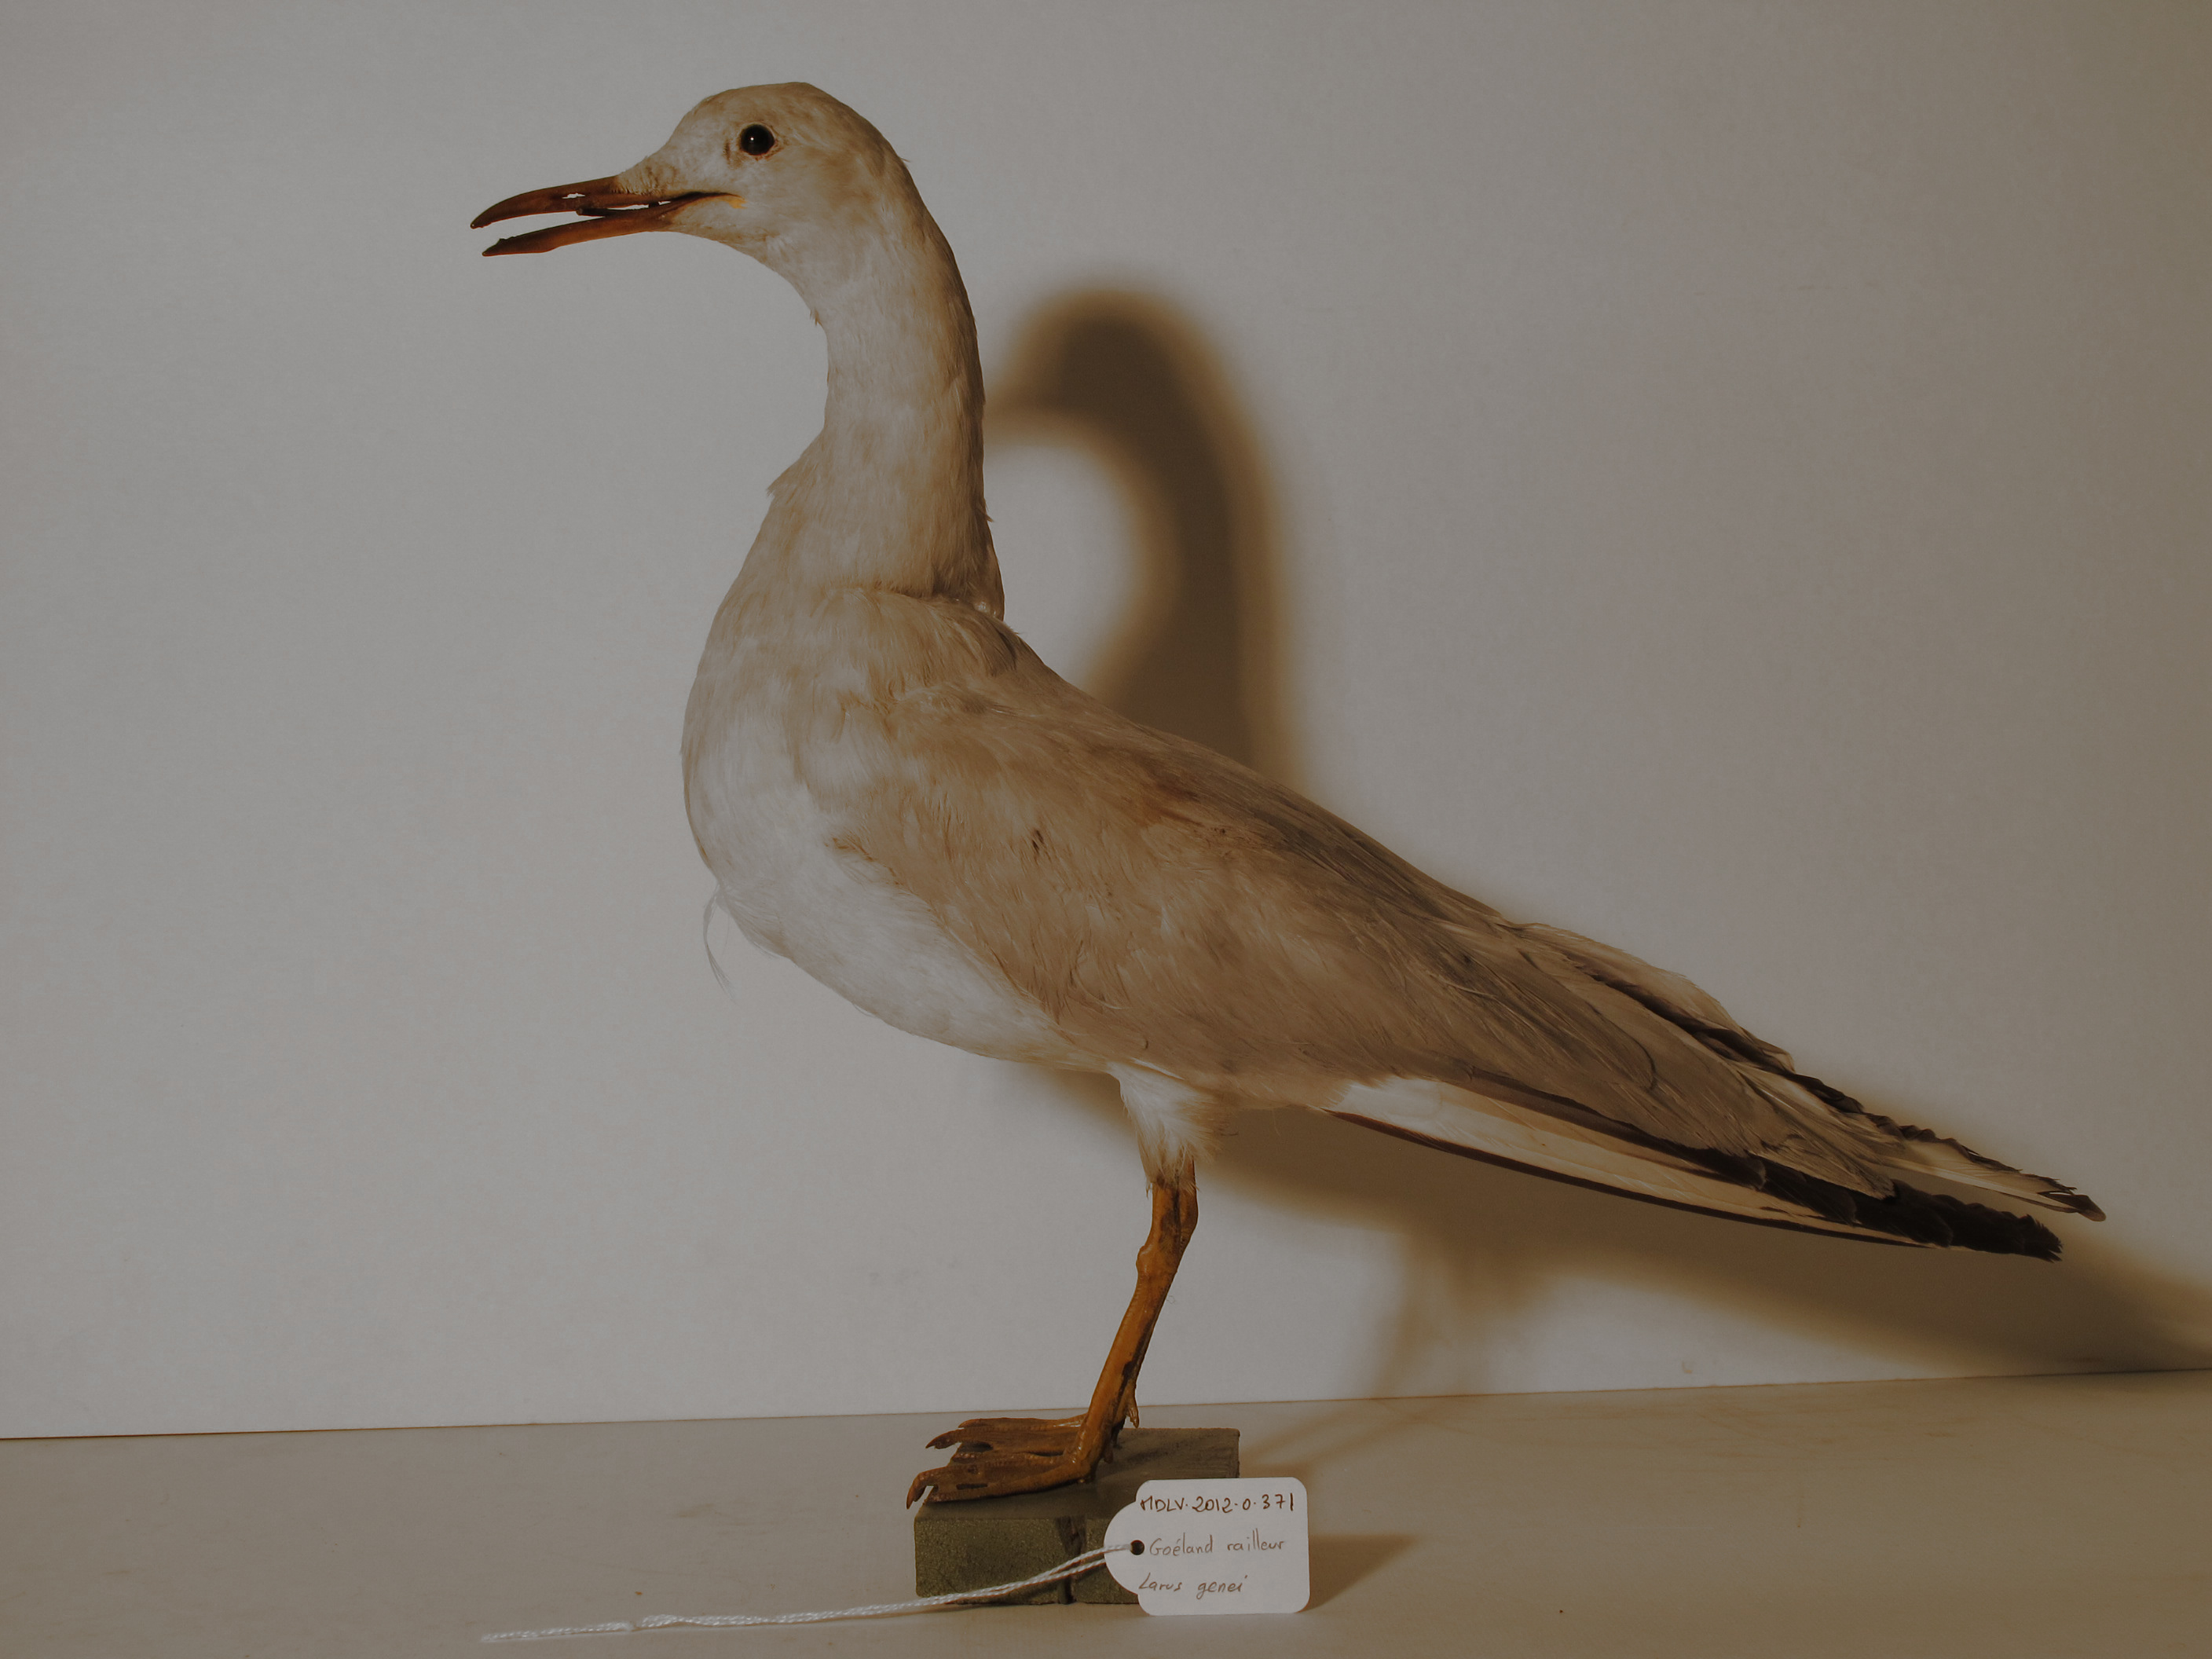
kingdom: Animalia
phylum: Chordata
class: Aves
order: Charadriiformes
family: Laridae
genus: Chroicocephalus
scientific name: Chroicocephalus genei
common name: Slender-billed Gull
